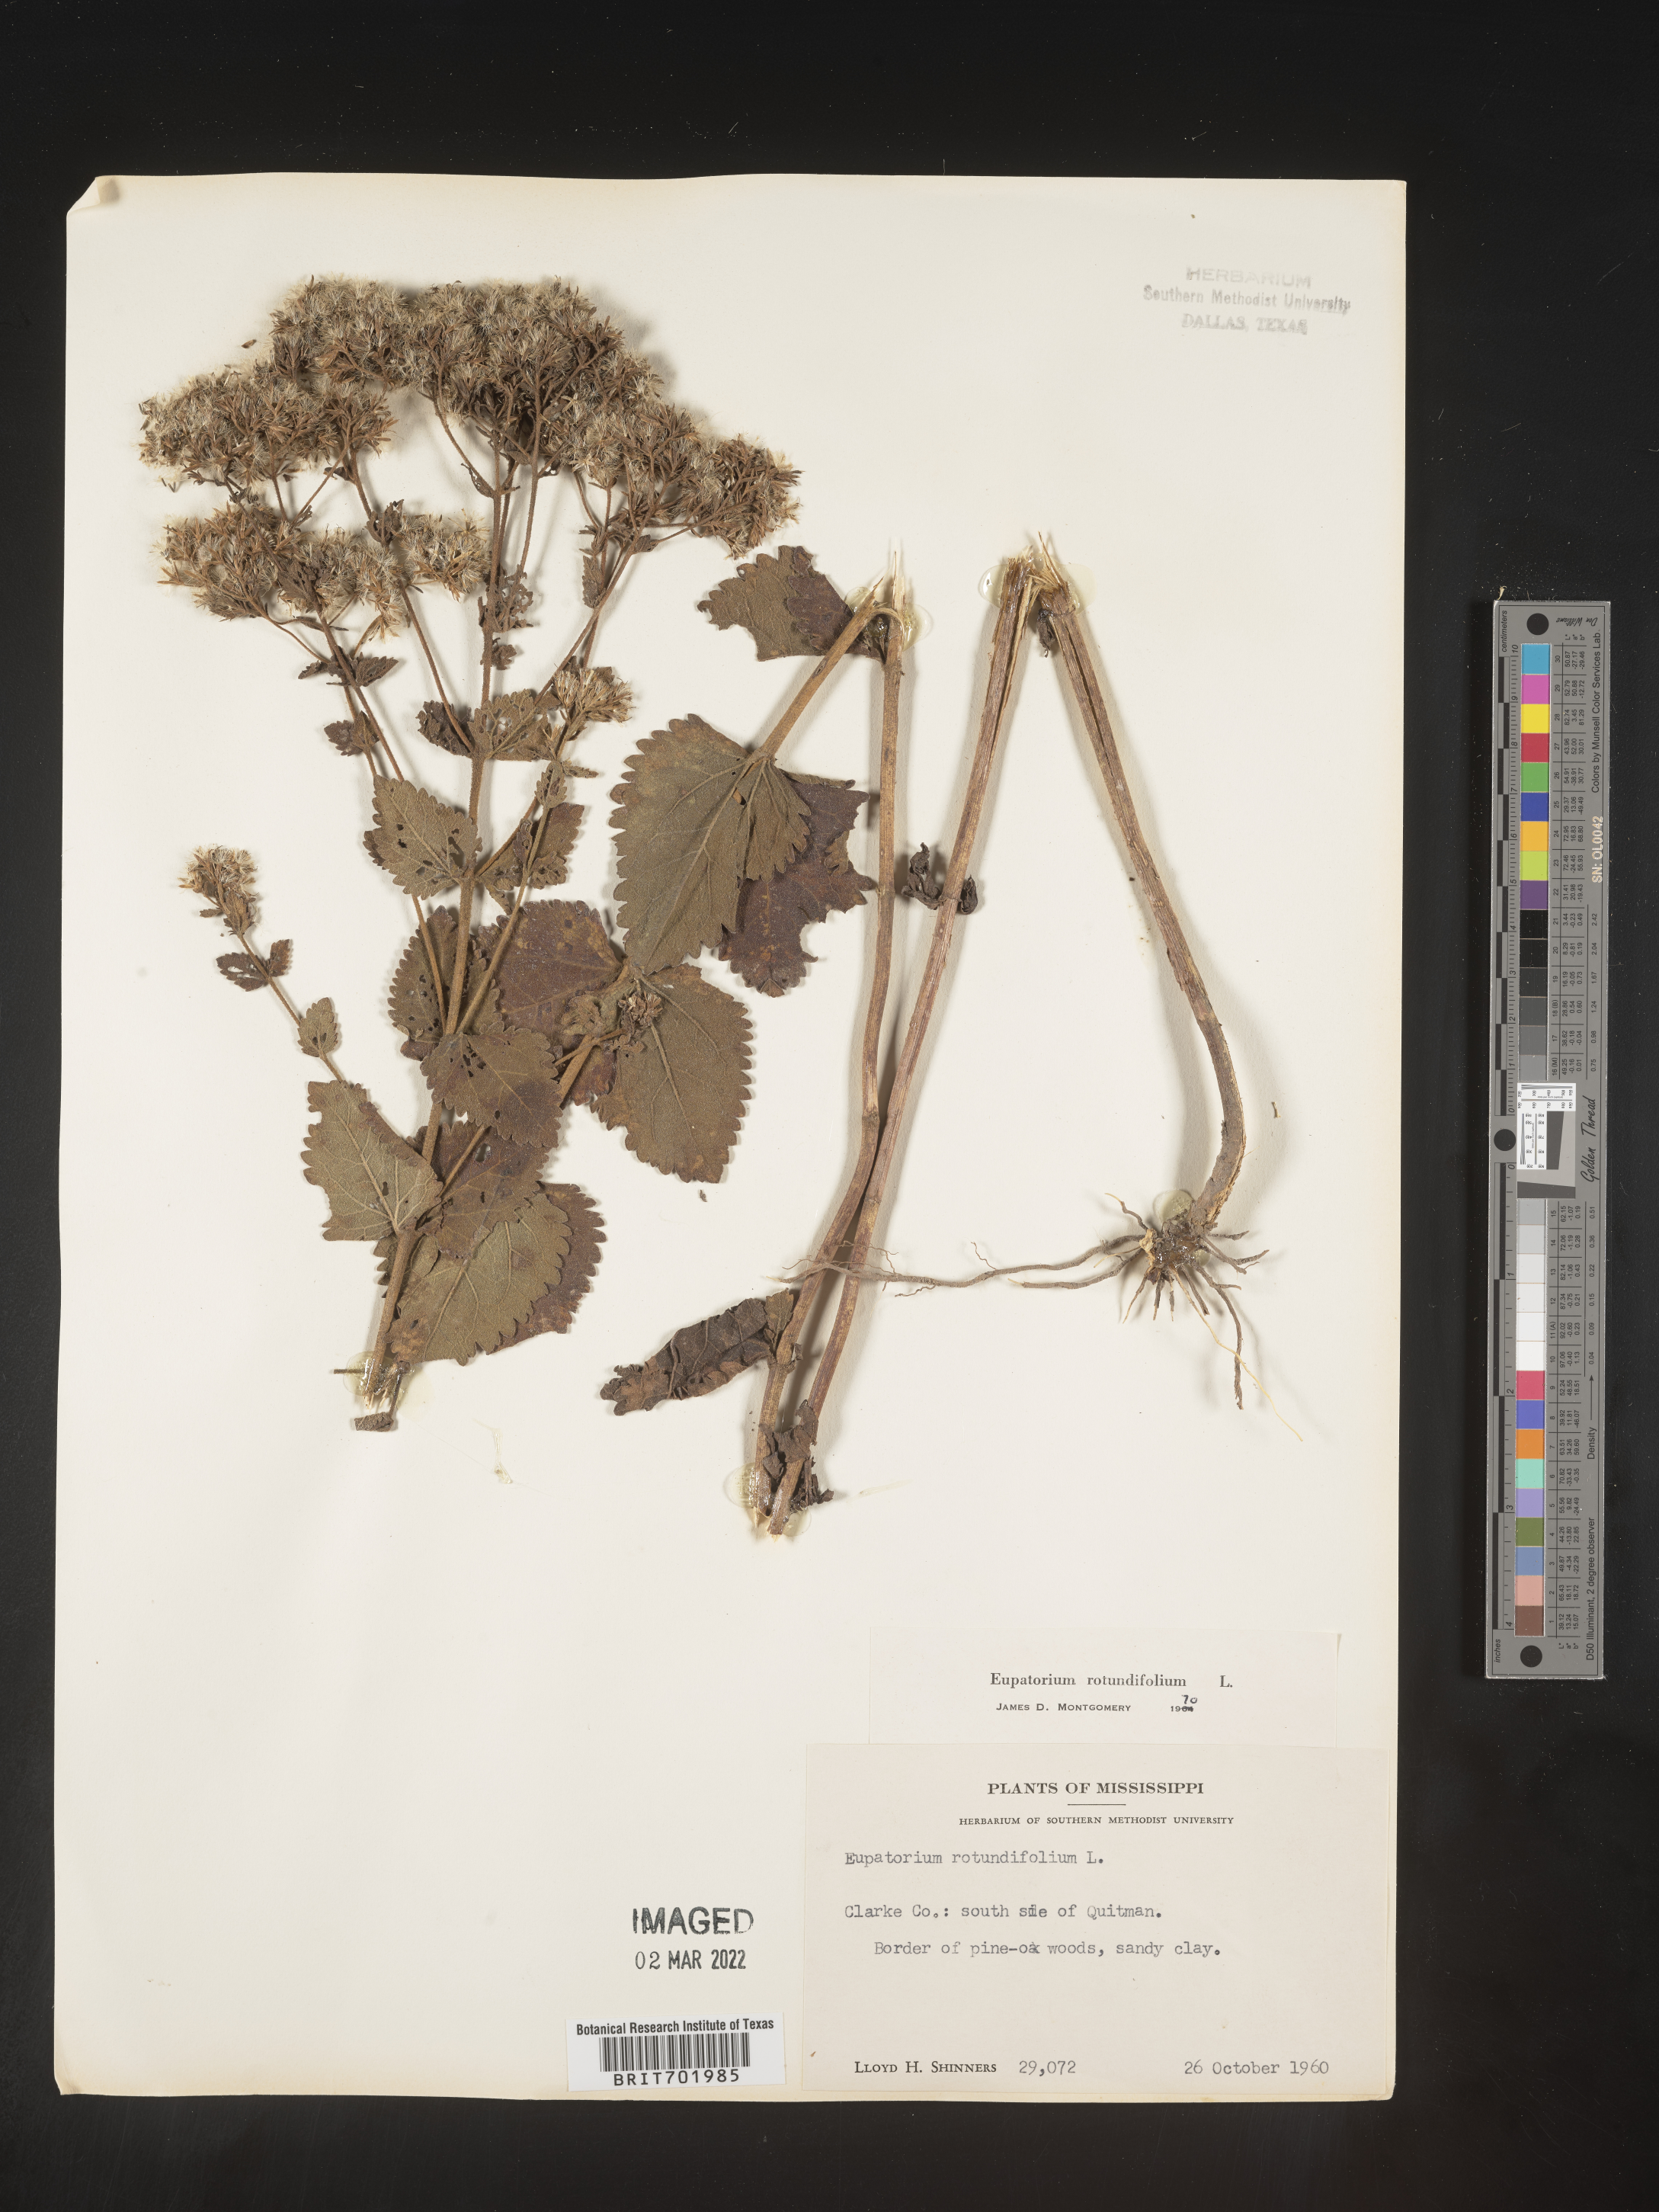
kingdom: Plantae
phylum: Tracheophyta
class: Magnoliopsida
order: Asterales
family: Asteraceae
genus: Eupatorium
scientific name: Eupatorium rotundifolium
